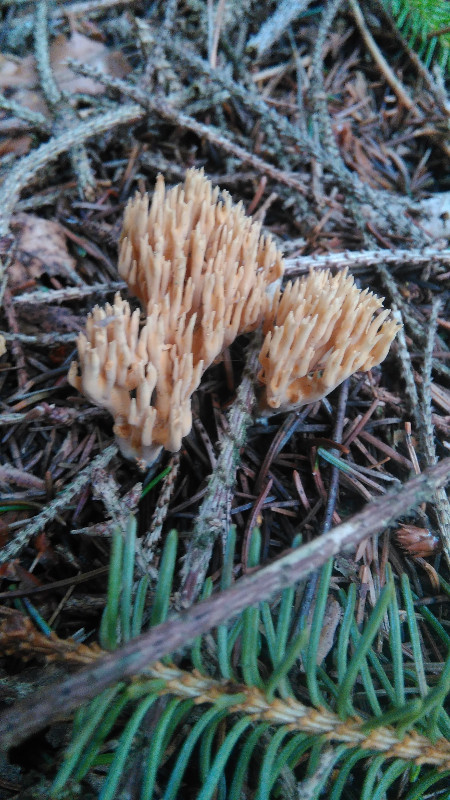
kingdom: Fungi
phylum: Basidiomycota
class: Agaricomycetes
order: Gomphales
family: Gomphaceae
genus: Phaeoclavulina
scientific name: Phaeoclavulina eumorpha
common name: gran-koralsvamp
